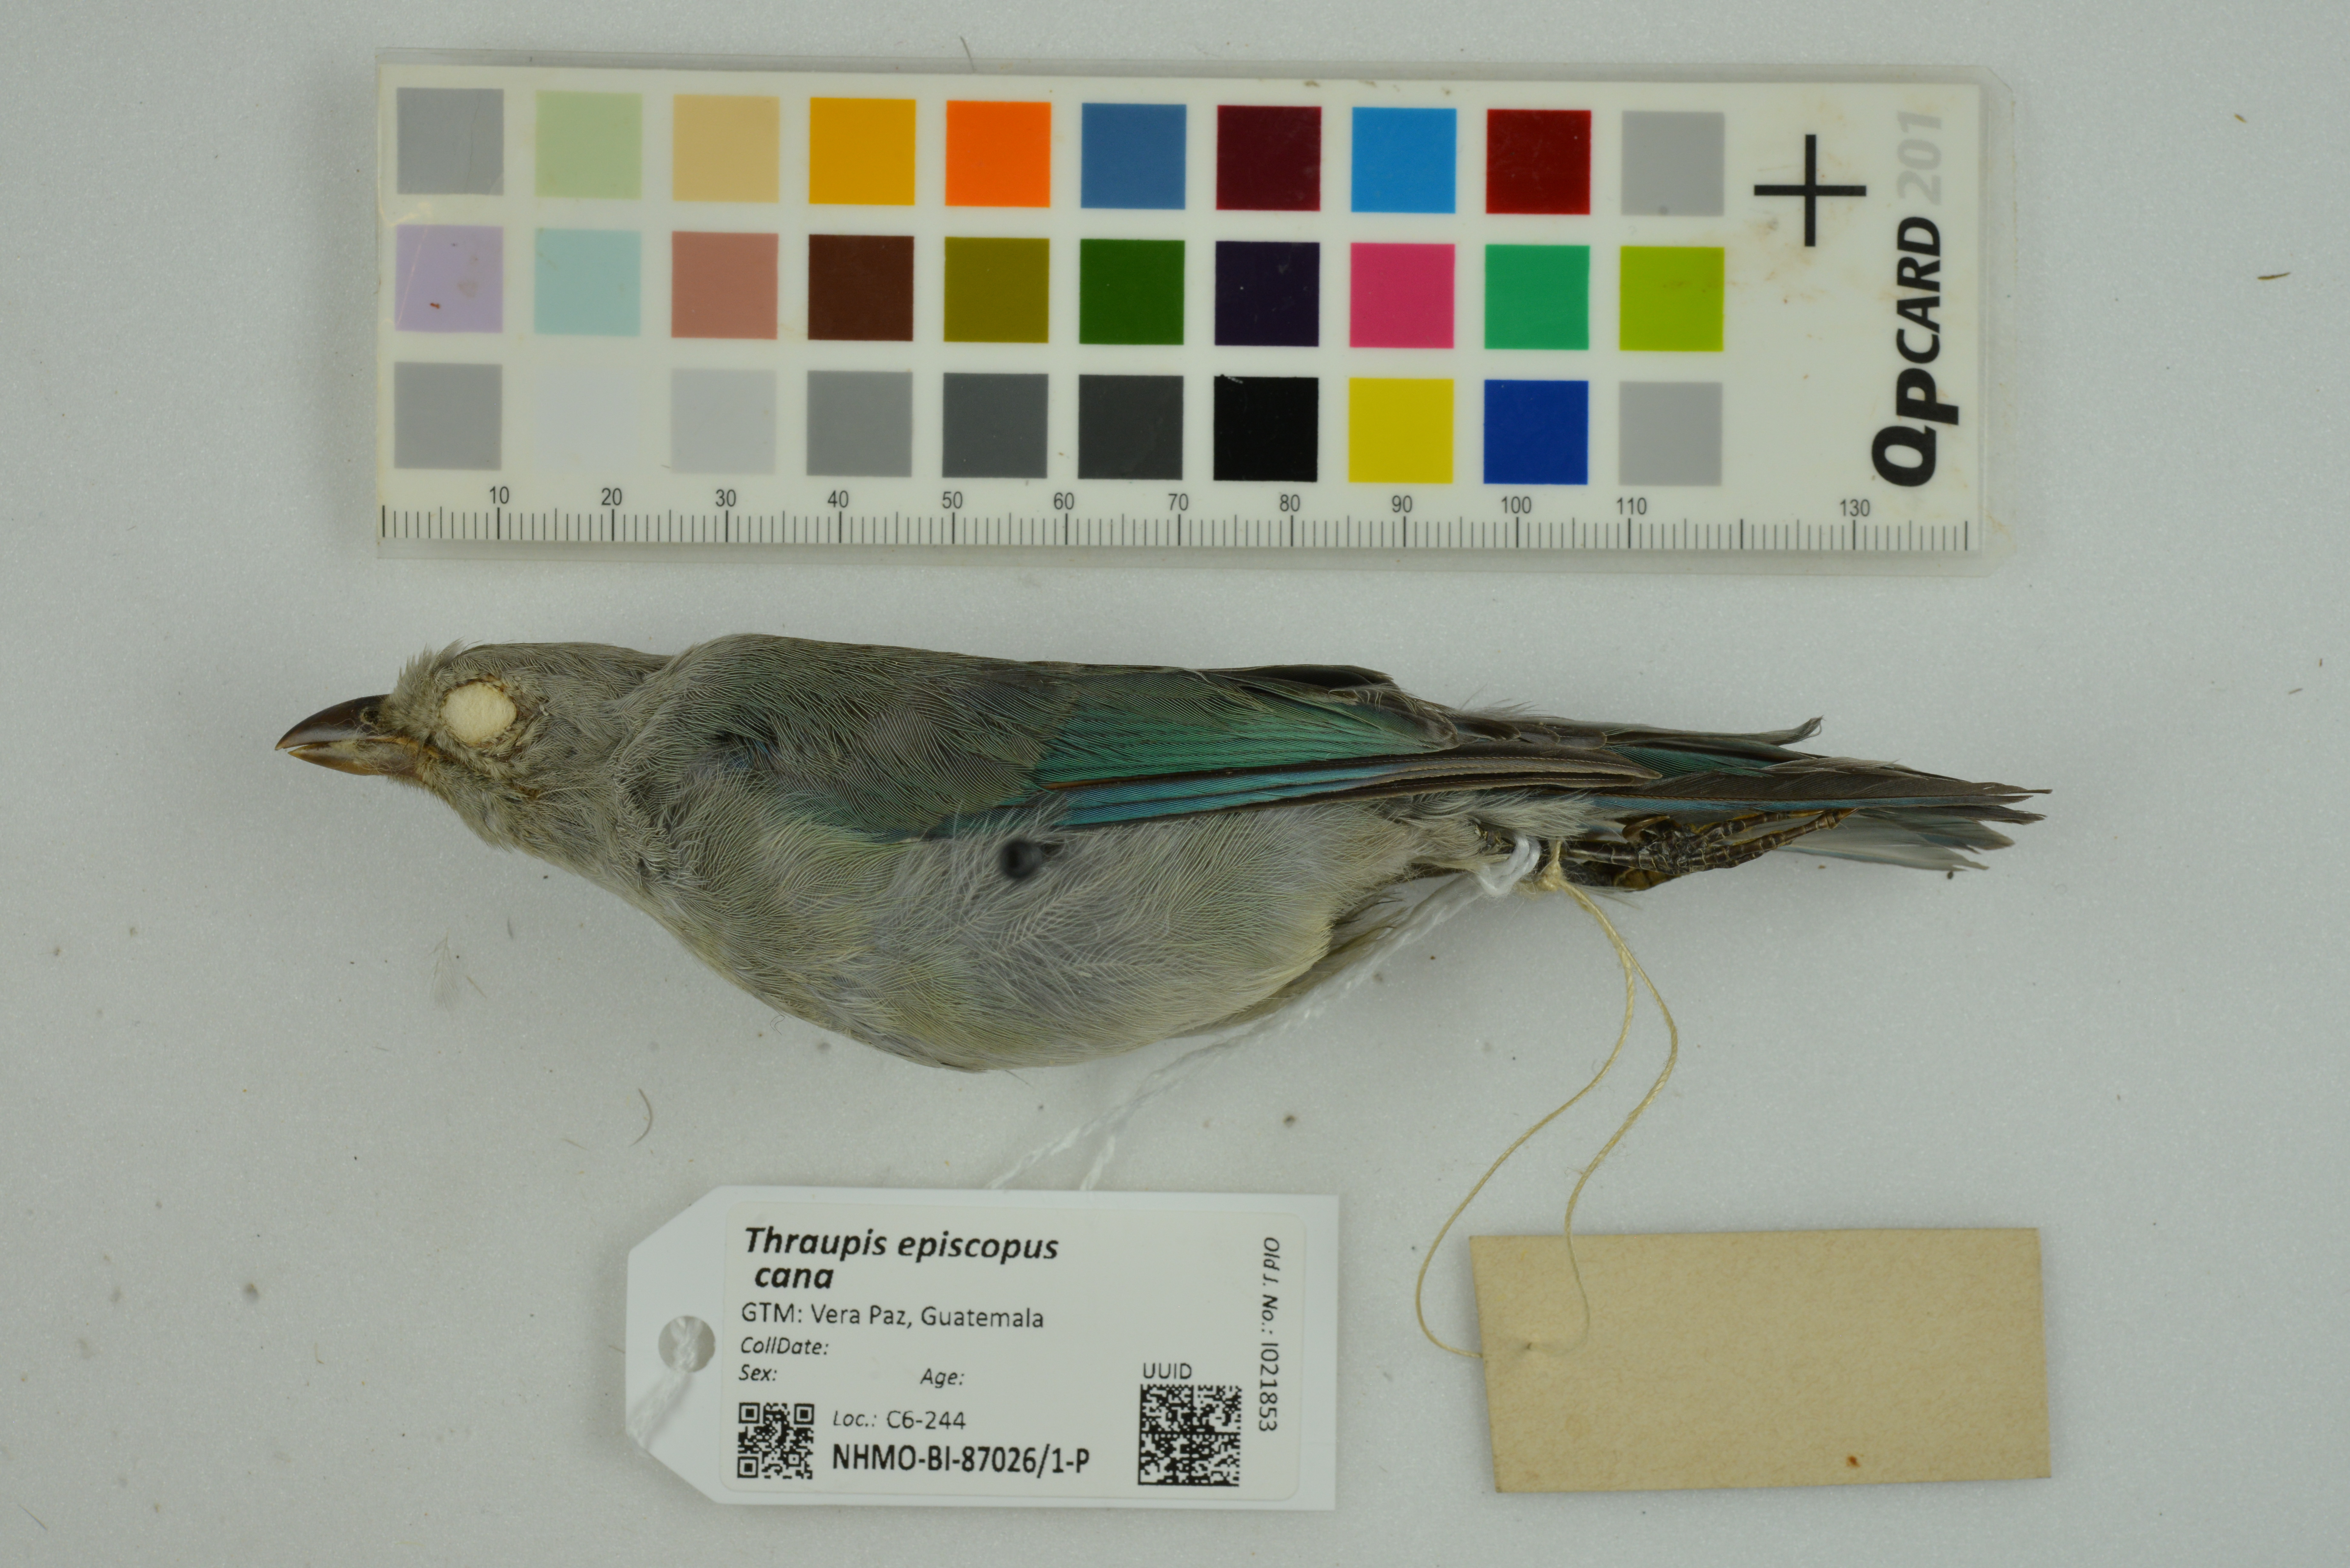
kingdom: Animalia
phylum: Chordata
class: Aves
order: Passeriformes
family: Thraupidae
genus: Thraupis
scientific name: Thraupis episcopus
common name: Blue-grey tanager
